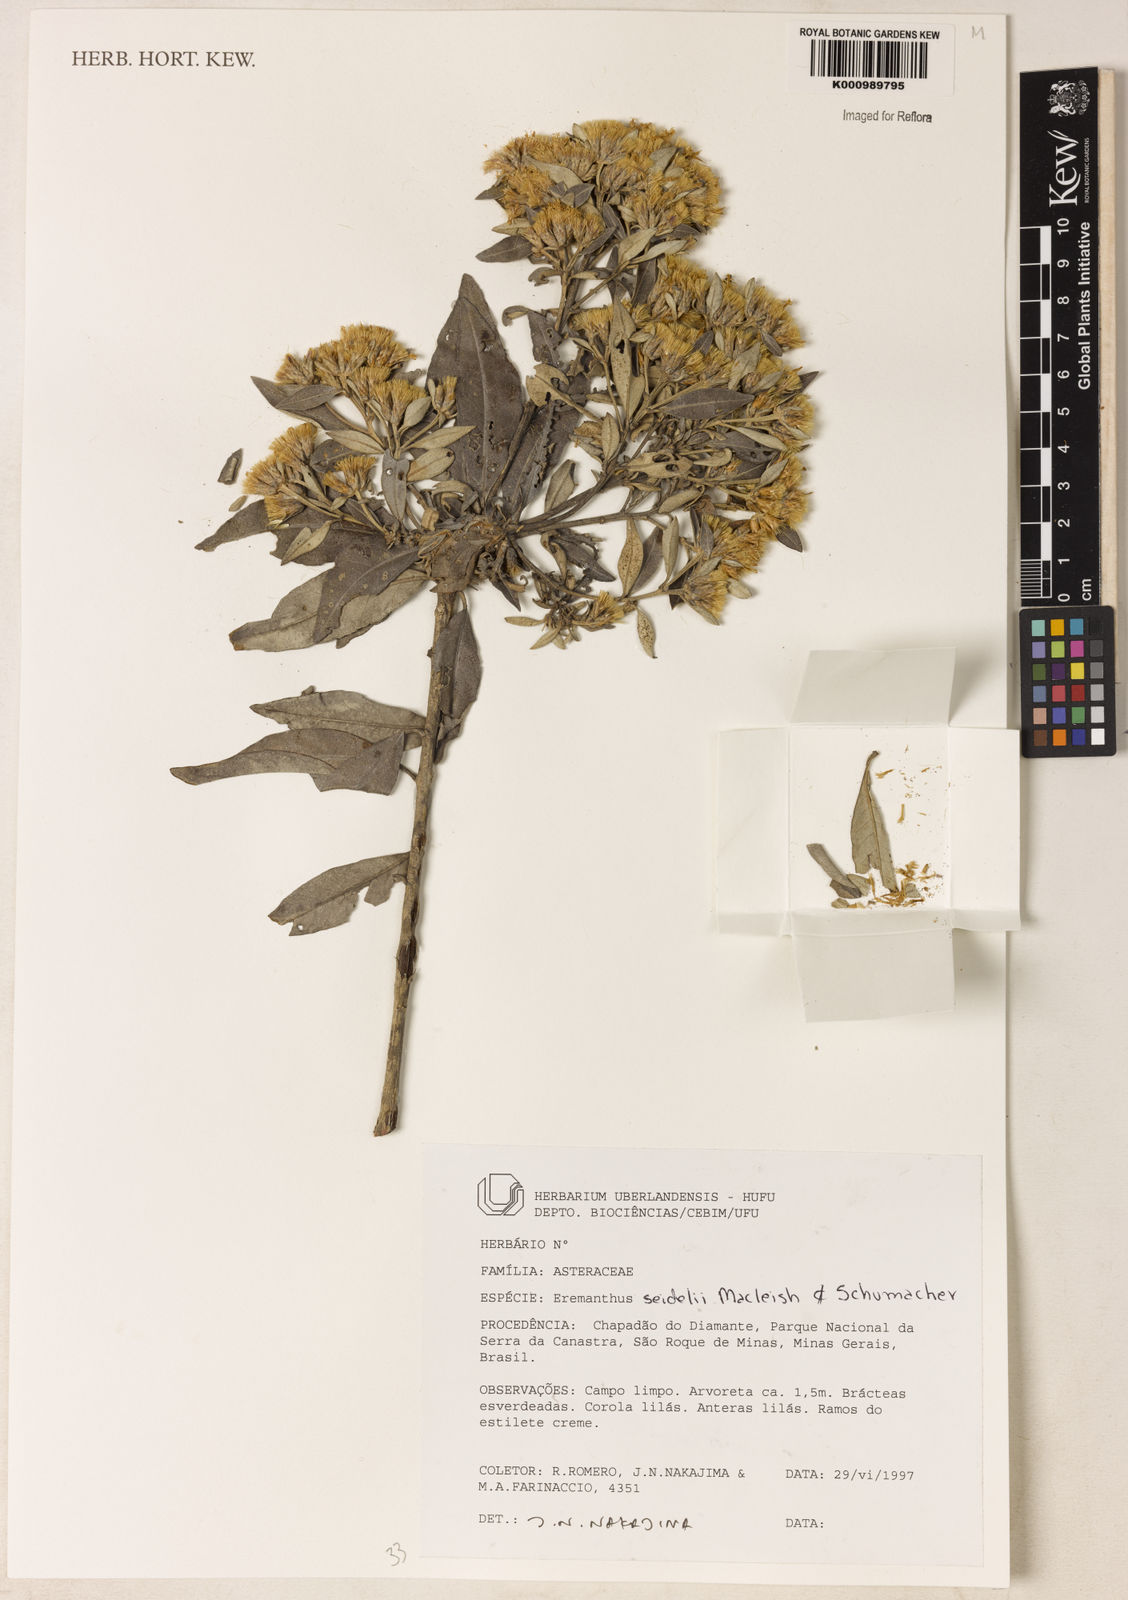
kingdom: Plantae
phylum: Tracheophyta
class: Magnoliopsida
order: Asterales
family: Asteraceae
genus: Eremanthus
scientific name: Eremanthus elaeagnus
